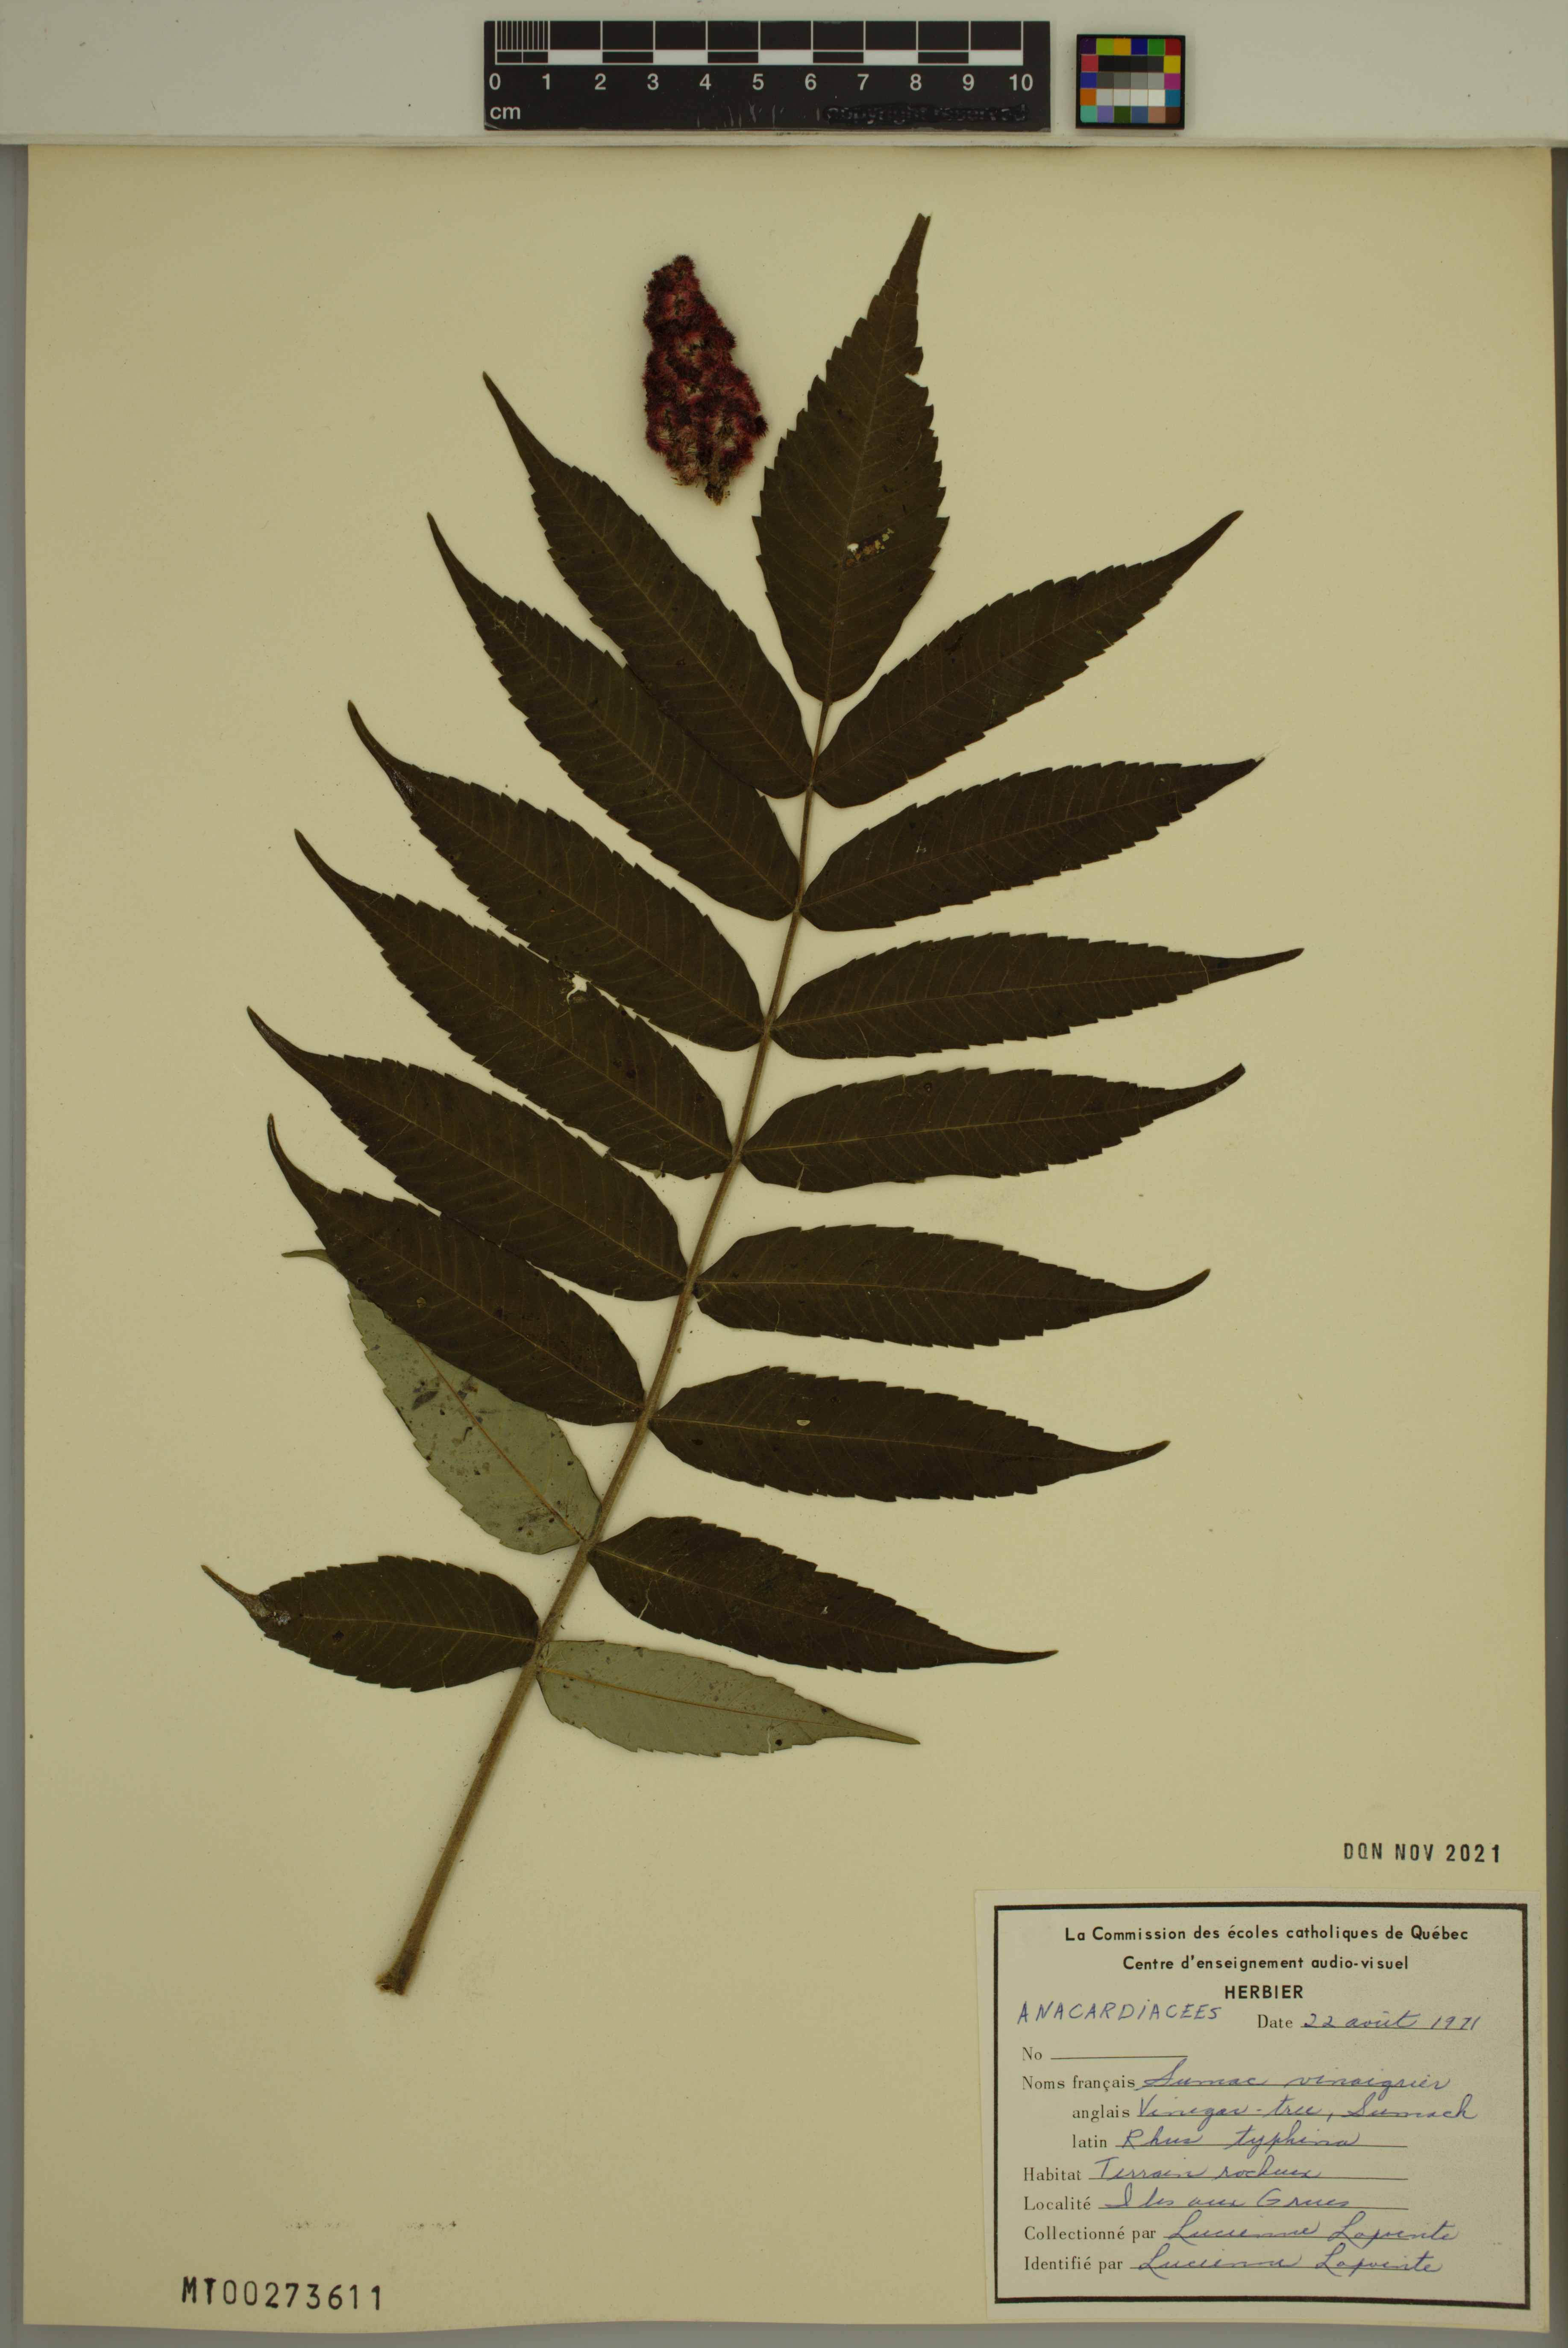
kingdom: Plantae
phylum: Tracheophyta
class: Magnoliopsida
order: Sapindales
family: Anacardiaceae
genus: Rhus
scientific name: Rhus typhina
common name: Staghorn sumac
